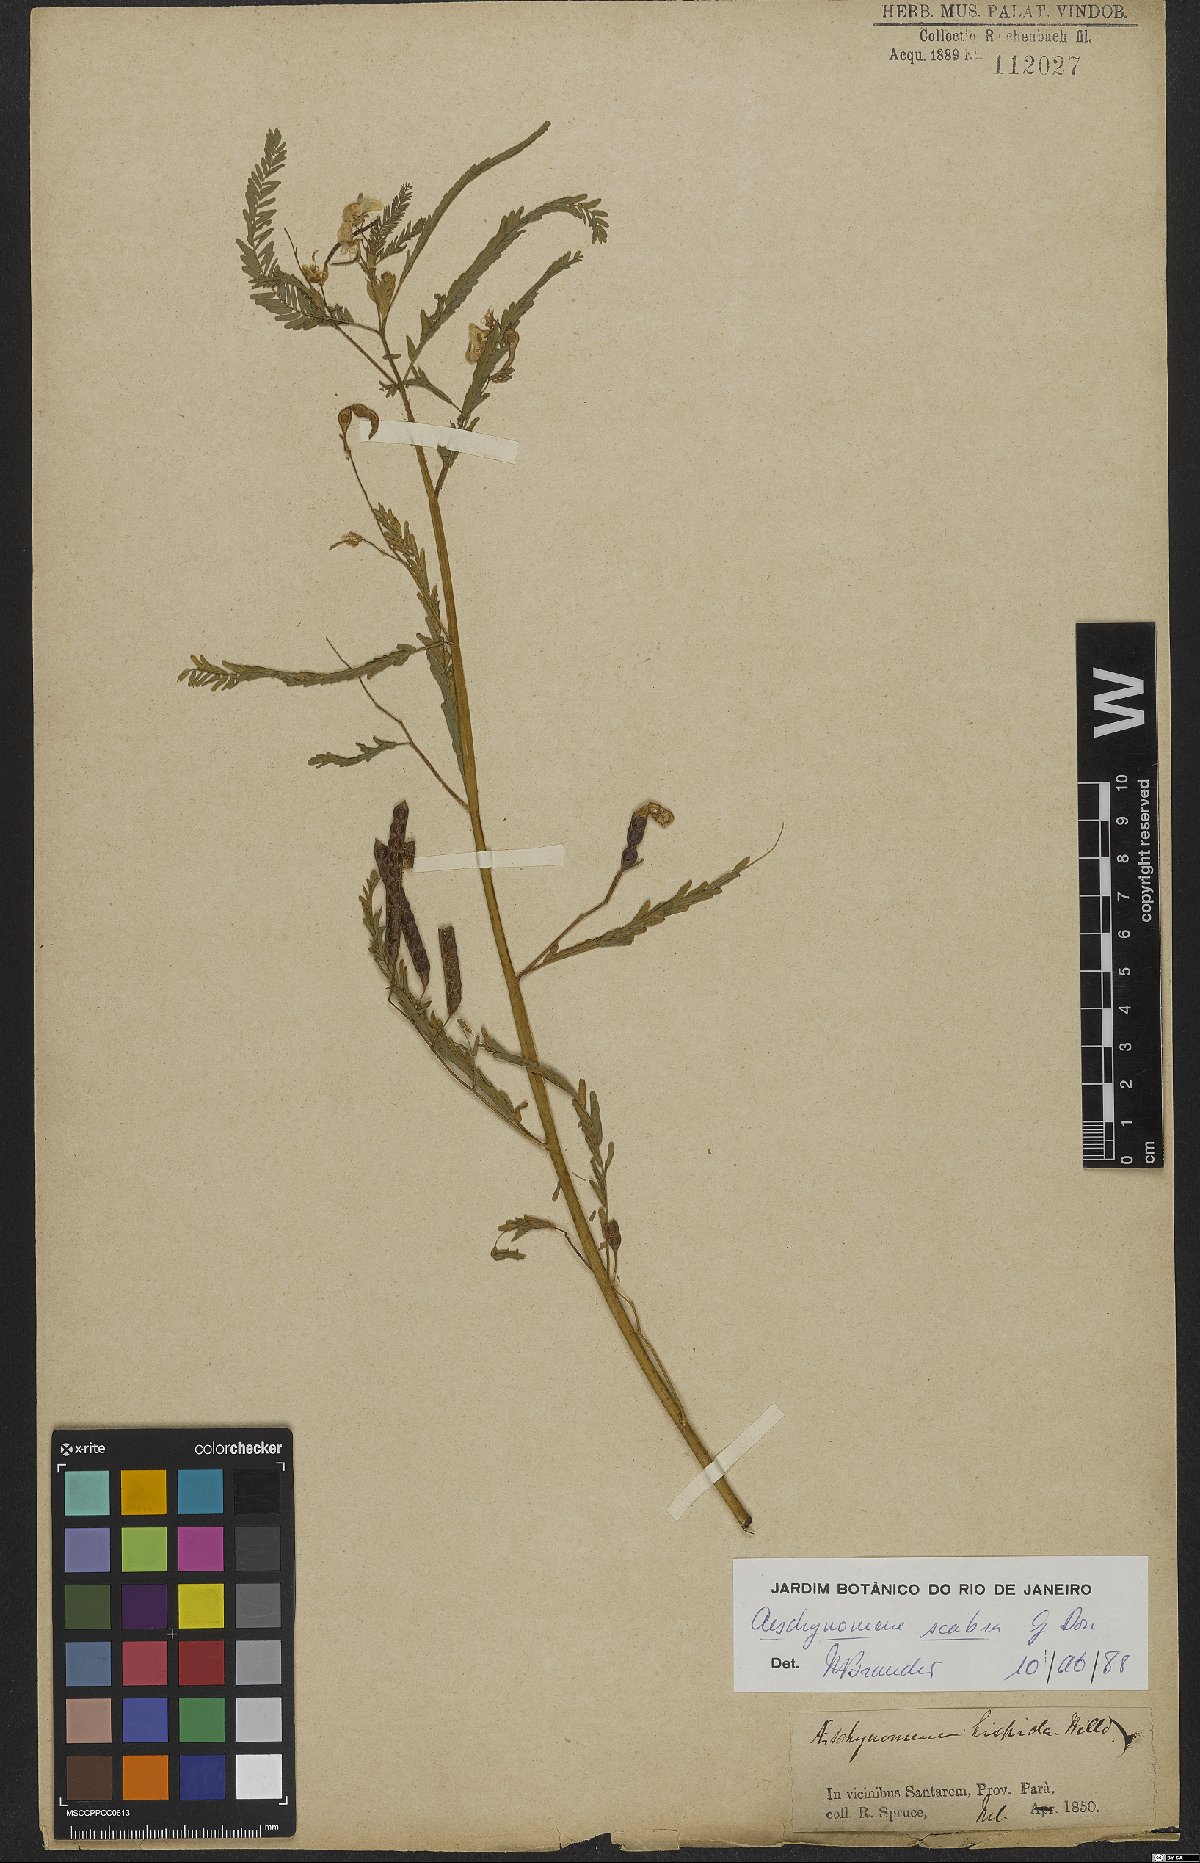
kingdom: Plantae
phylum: Tracheophyta
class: Magnoliopsida
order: Fabales
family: Fabaceae
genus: Aeschynomene
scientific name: Aeschynomene scabra
